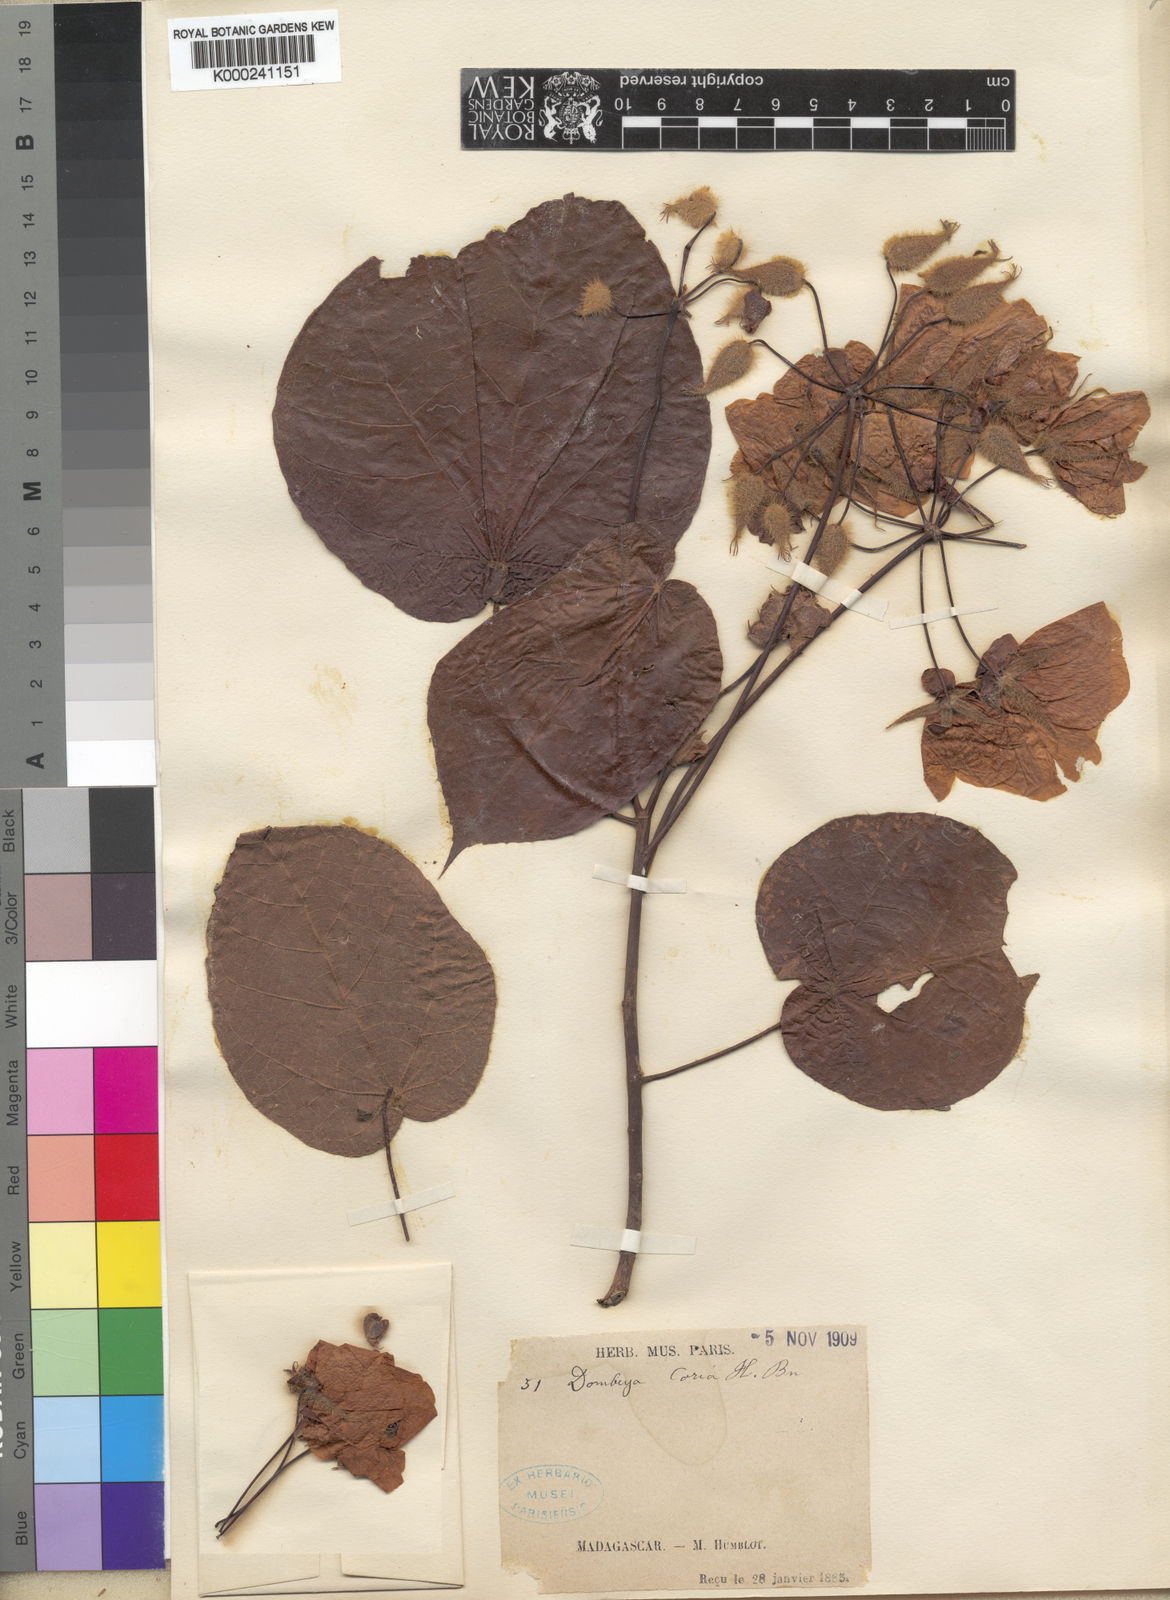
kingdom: Plantae
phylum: Tracheophyta
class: Magnoliopsida
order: Malvales
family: Malvaceae
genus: Dombeya
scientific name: Dombeya
